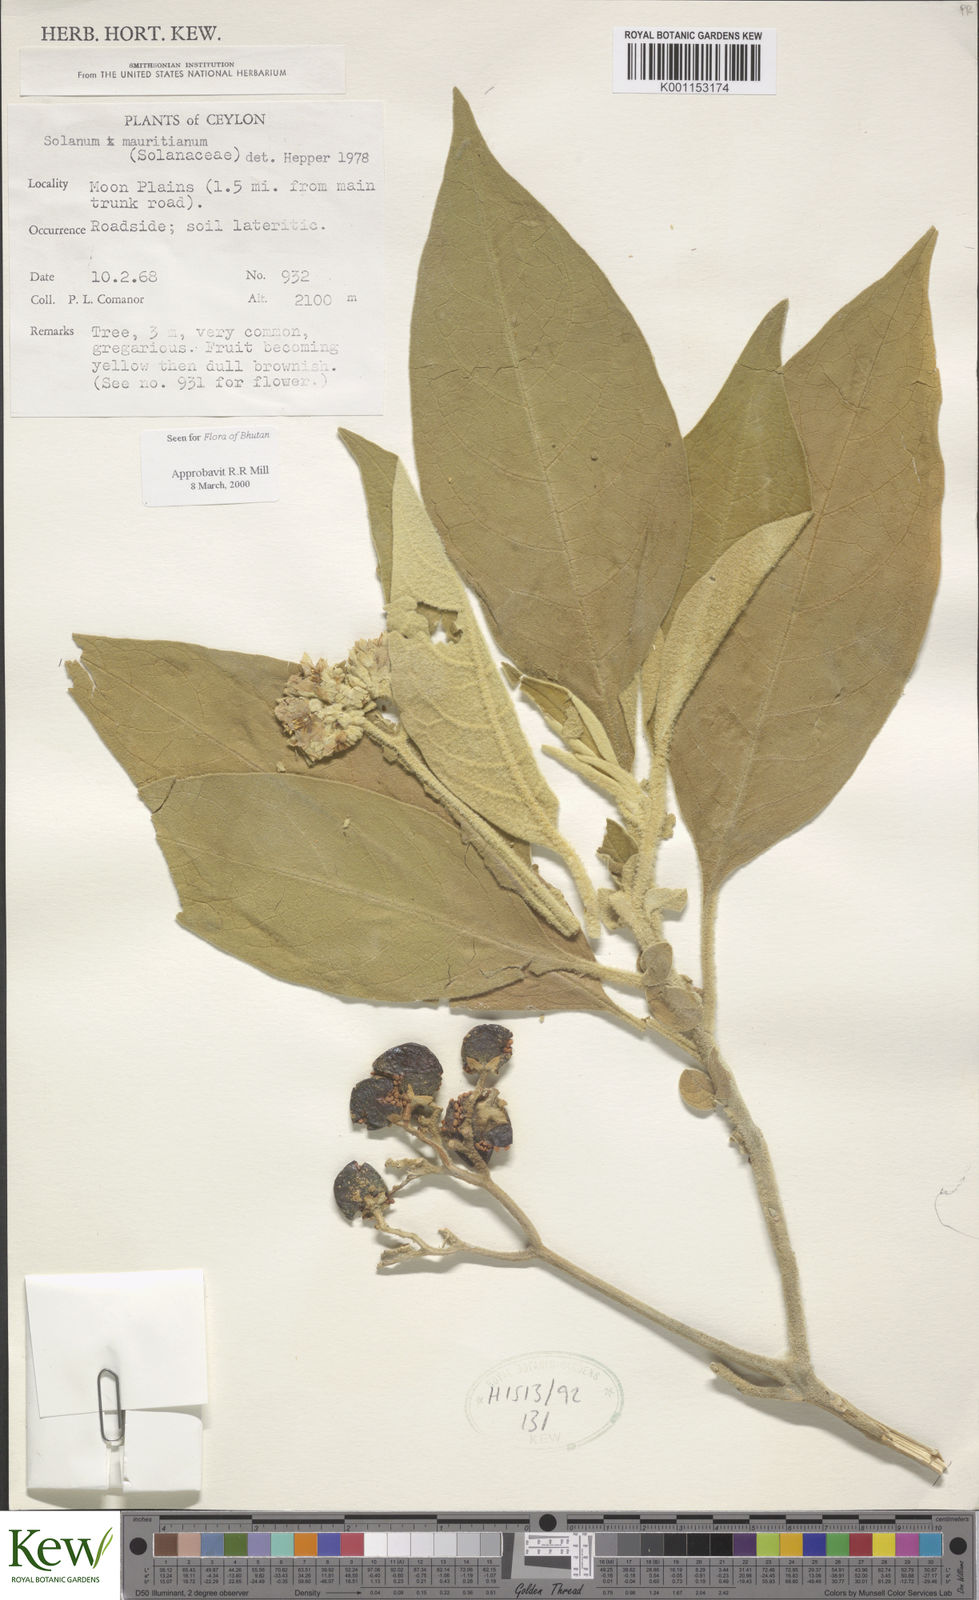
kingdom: Plantae
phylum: Tracheophyta
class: Magnoliopsida
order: Solanales
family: Solanaceae
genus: Solanum
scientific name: Solanum mauritianum
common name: Earleaf nightshade
